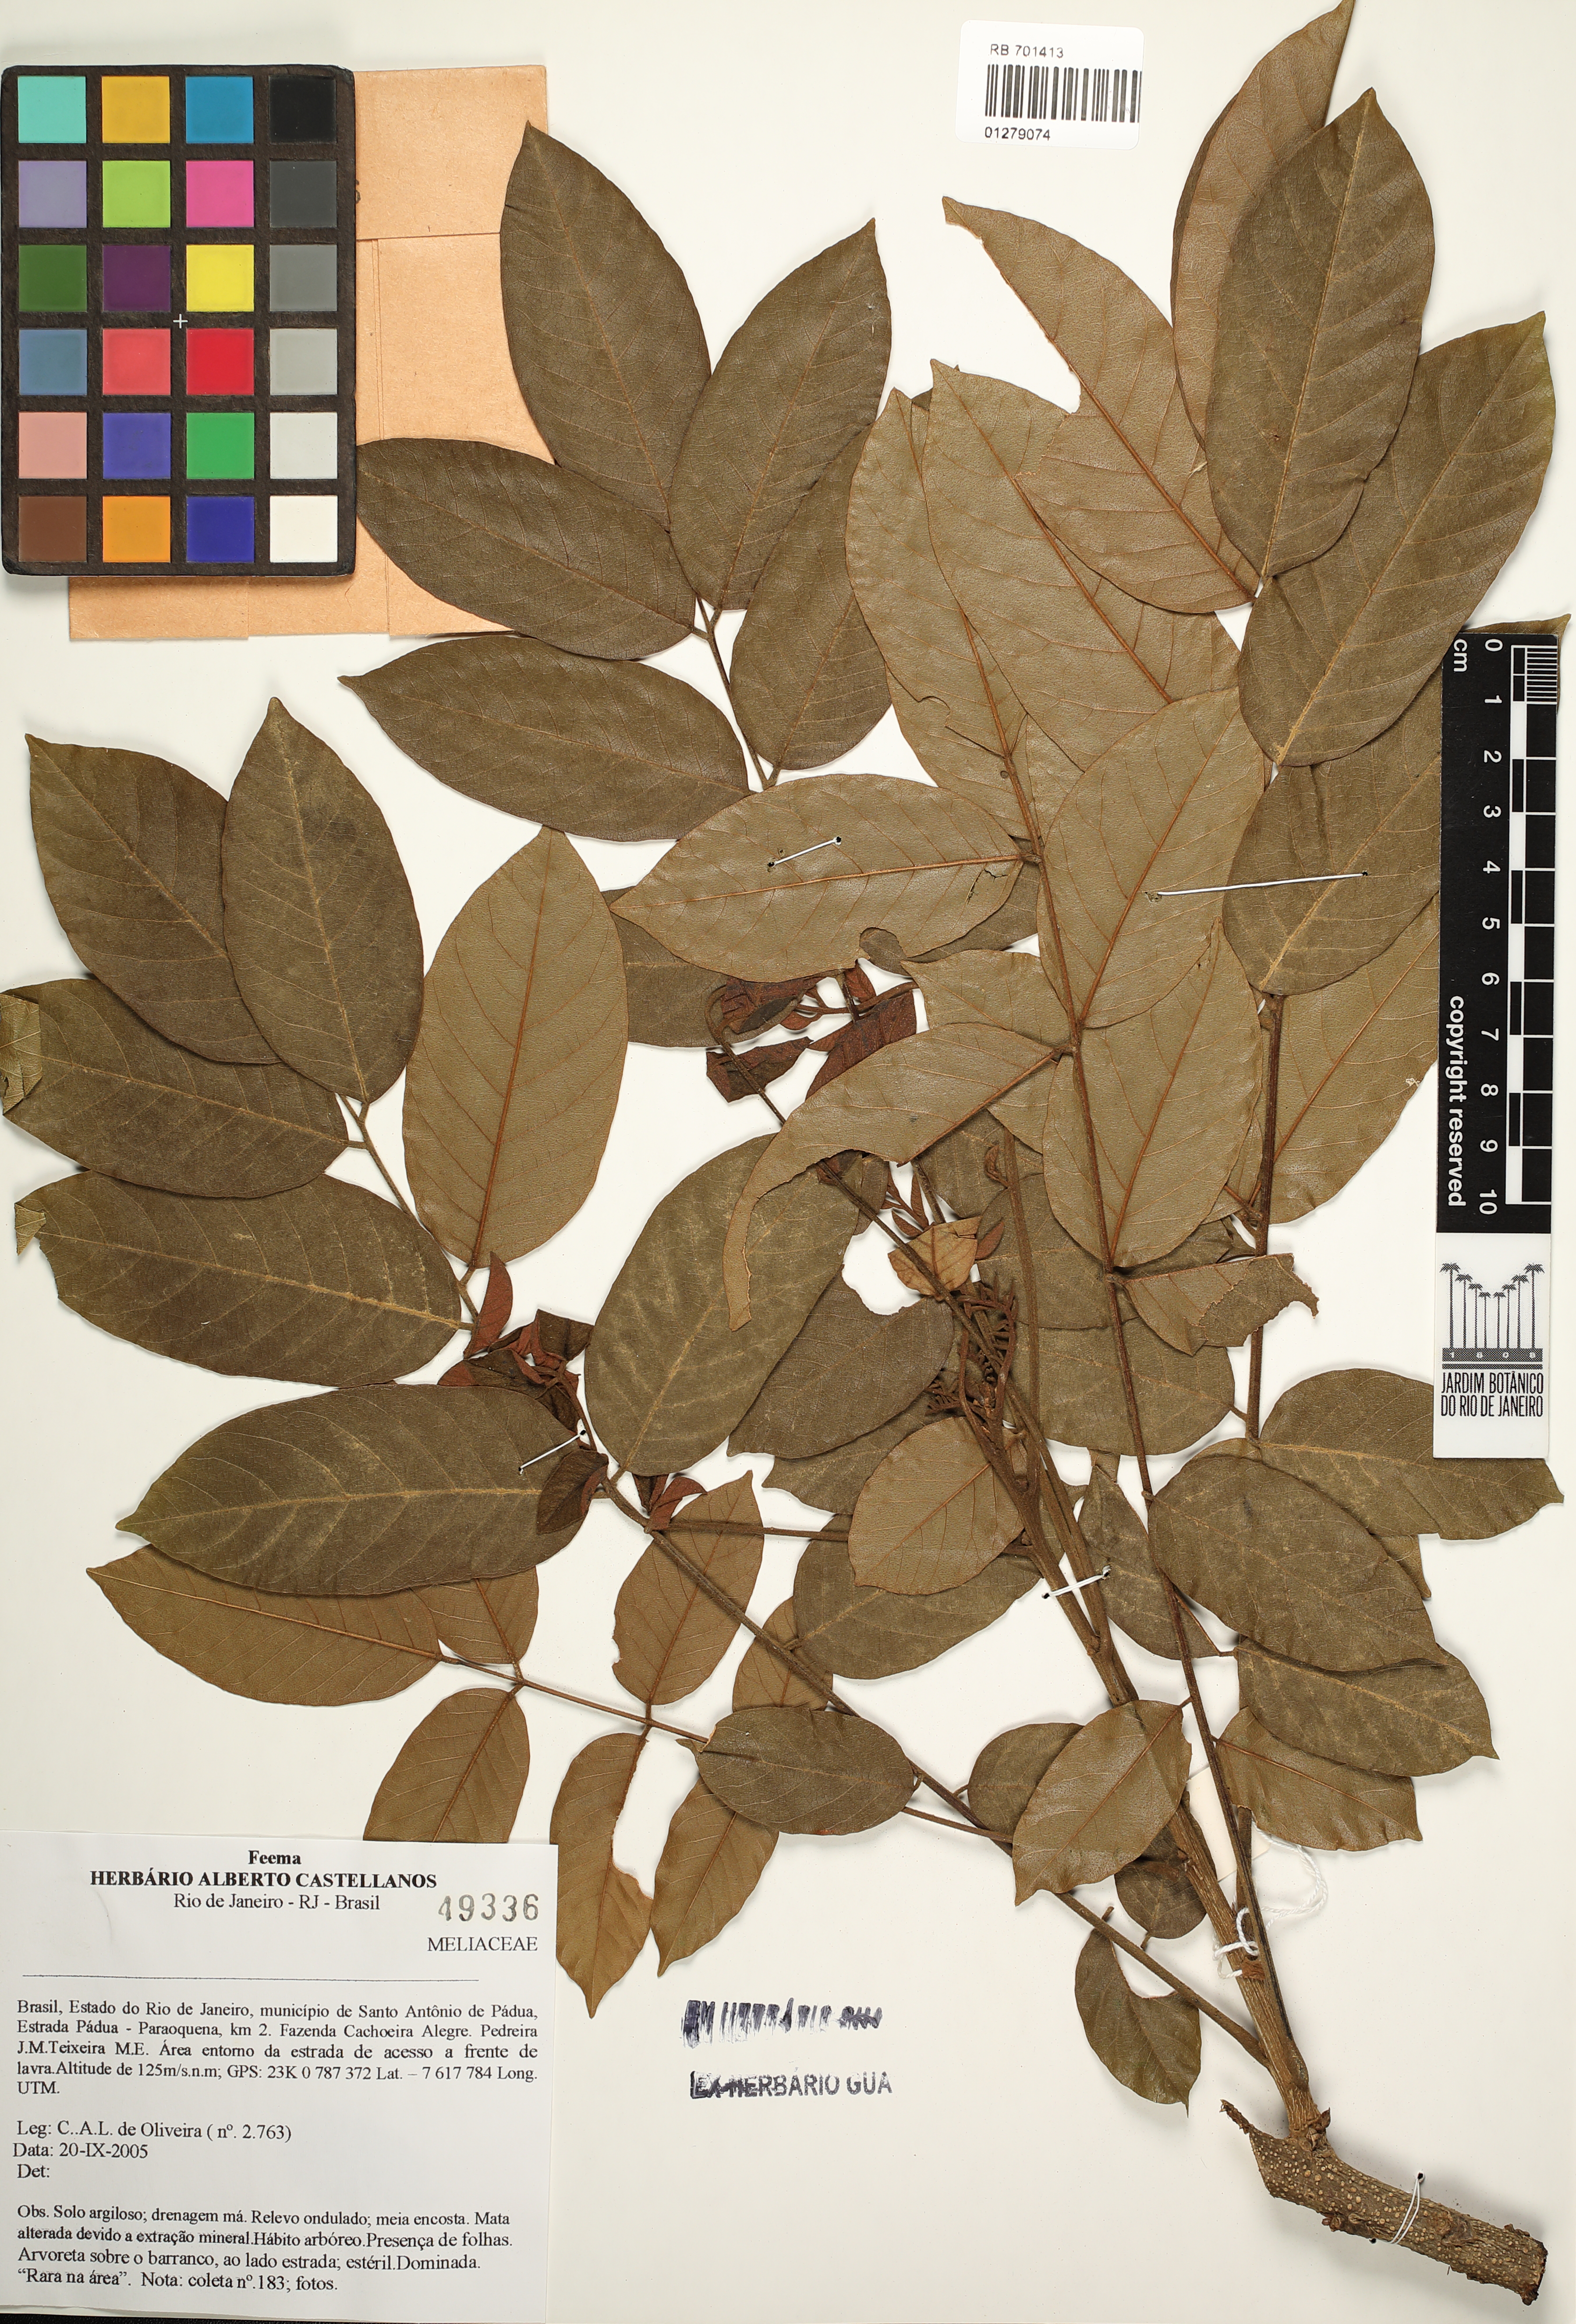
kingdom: Plantae
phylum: Tracheophyta
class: Magnoliopsida
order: Sapindales
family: Meliaceae
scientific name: Meliaceae
